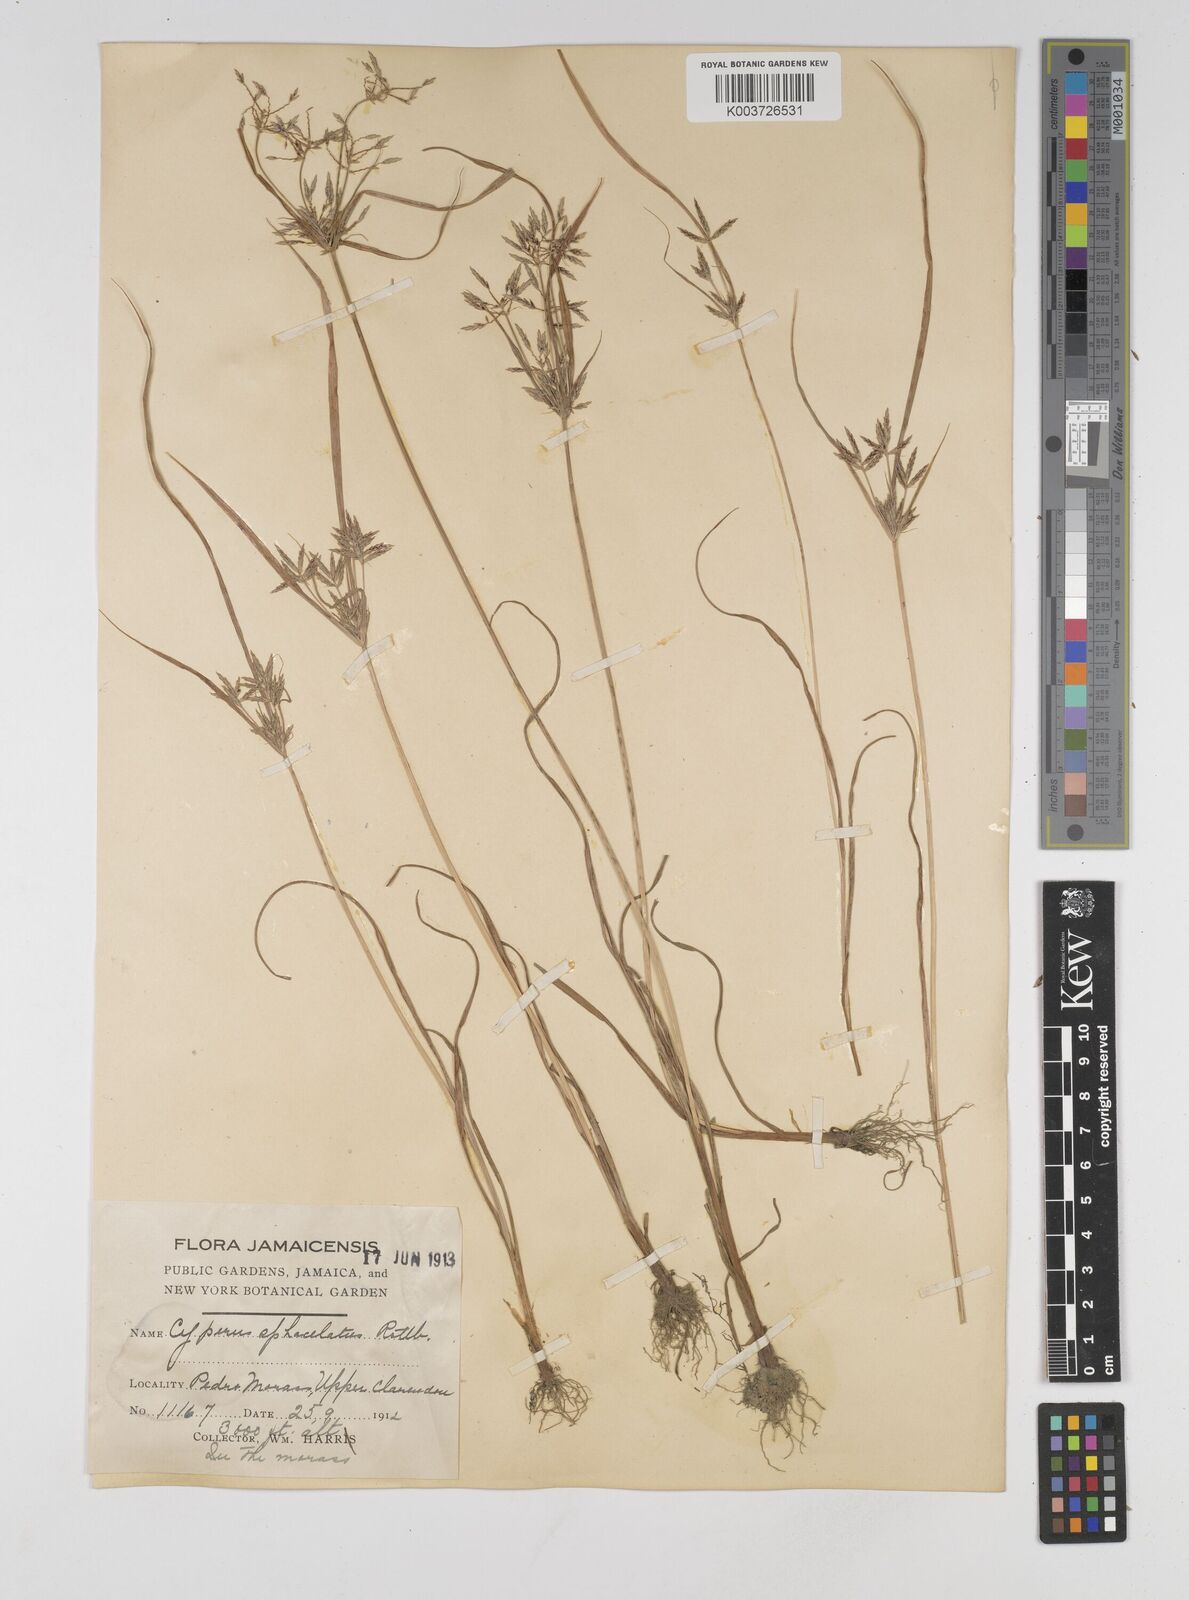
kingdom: Plantae
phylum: Tracheophyta
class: Liliopsida
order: Poales
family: Cyperaceae
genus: Cyperus
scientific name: Cyperus sphacelatus
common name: Roadside flatsedge
